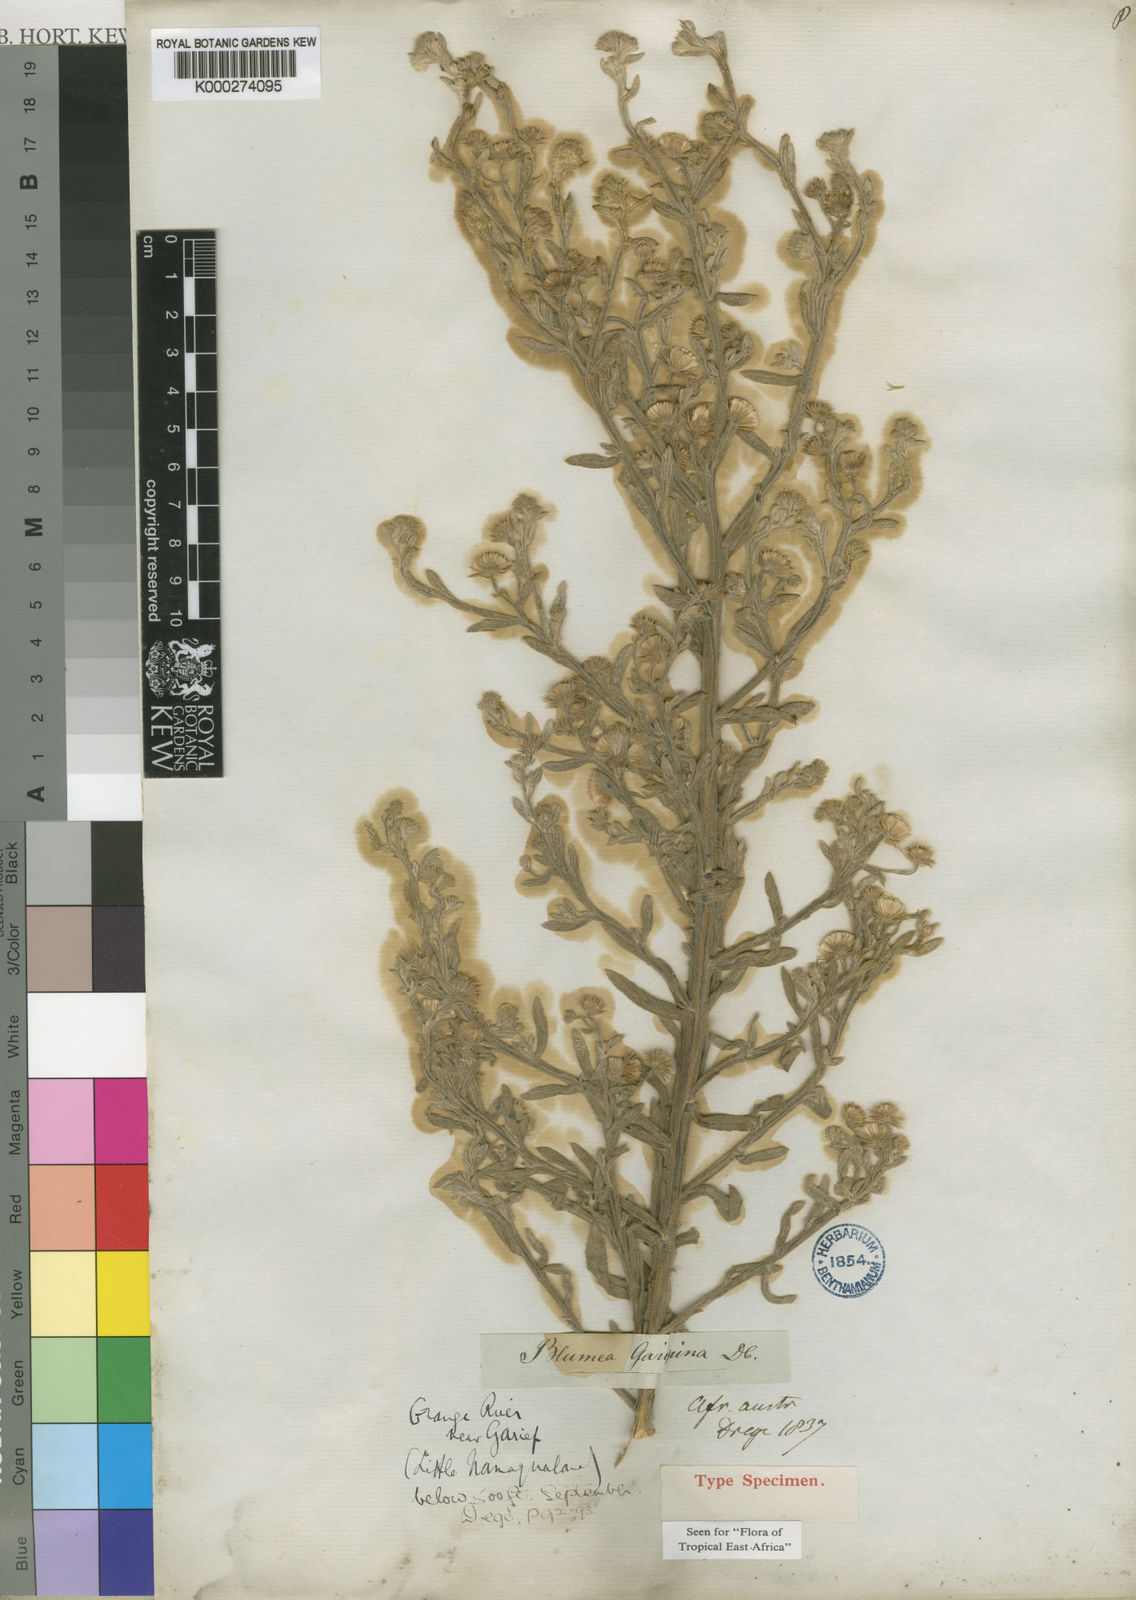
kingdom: Plantae
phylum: Tracheophyta
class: Magnoliopsida
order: Asterales
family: Asteraceae
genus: Galgera
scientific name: Galgera decurrens
